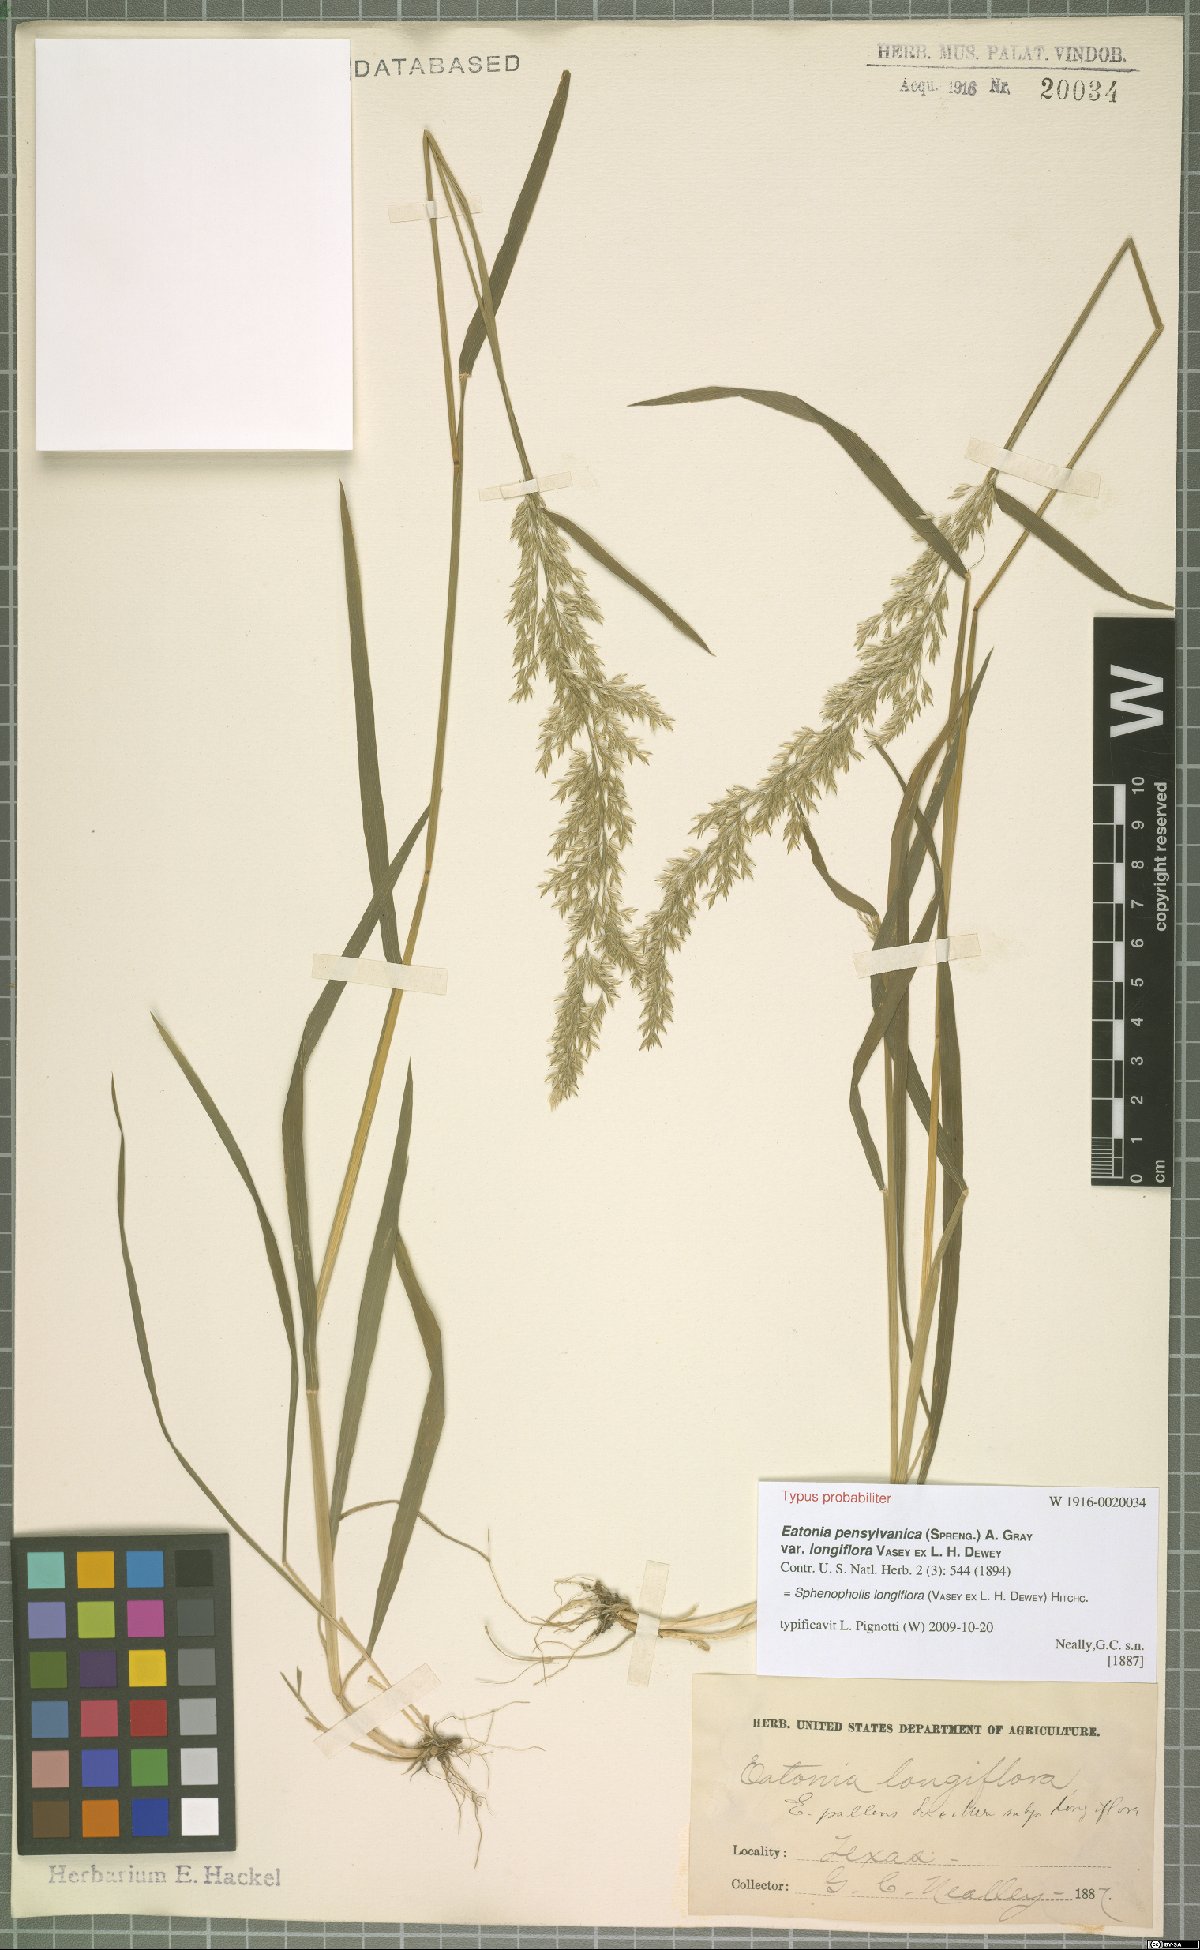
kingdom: Plantae
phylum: Tracheophyta
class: Liliopsida
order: Poales
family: Poaceae
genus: Sphenopholis
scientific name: Sphenopholis intermedia
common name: Intermediate eaton's grass
